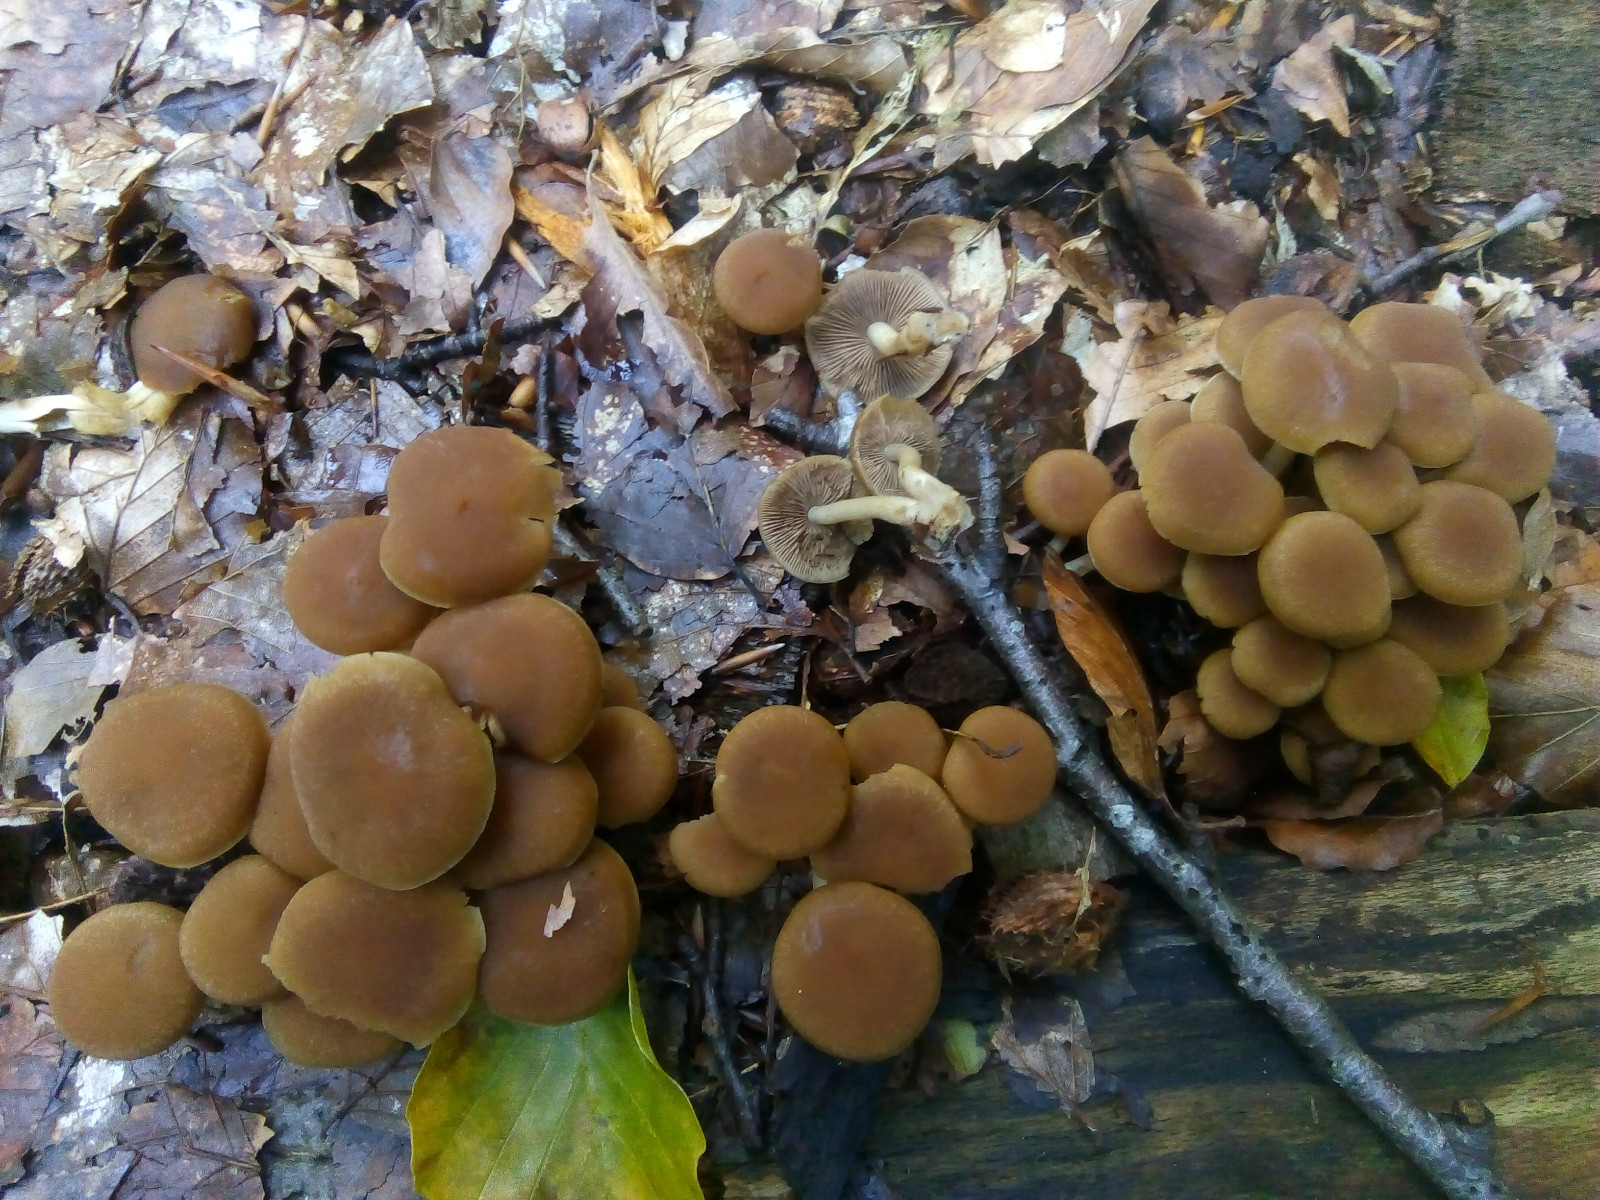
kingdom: Fungi
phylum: Basidiomycota
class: Agaricomycetes
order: Agaricales
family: Psathyrellaceae
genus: Psathyrella
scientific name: Psathyrella piluliformis
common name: lysstokket mørkhat
